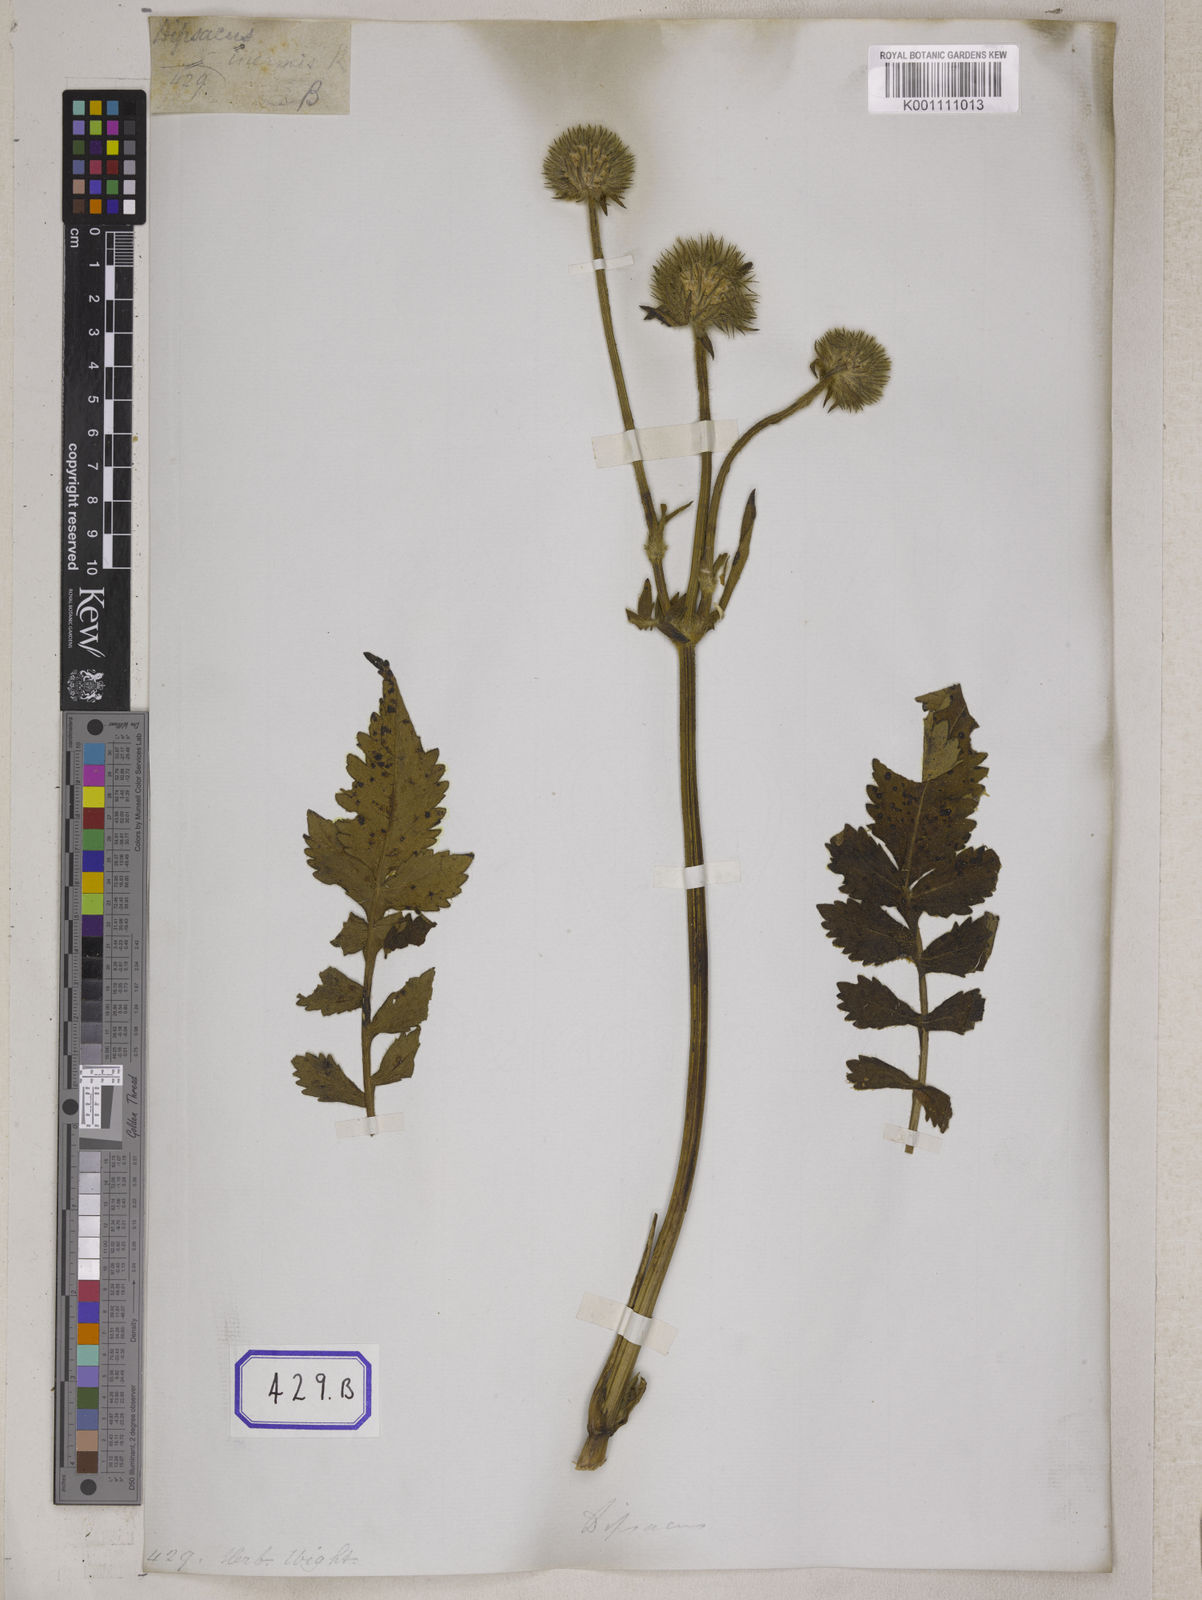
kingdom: Plantae
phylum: Tracheophyta
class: Magnoliopsida
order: Dipsacales
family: Caprifoliaceae
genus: Dipsacus
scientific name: Dipsacus leschenaultii
